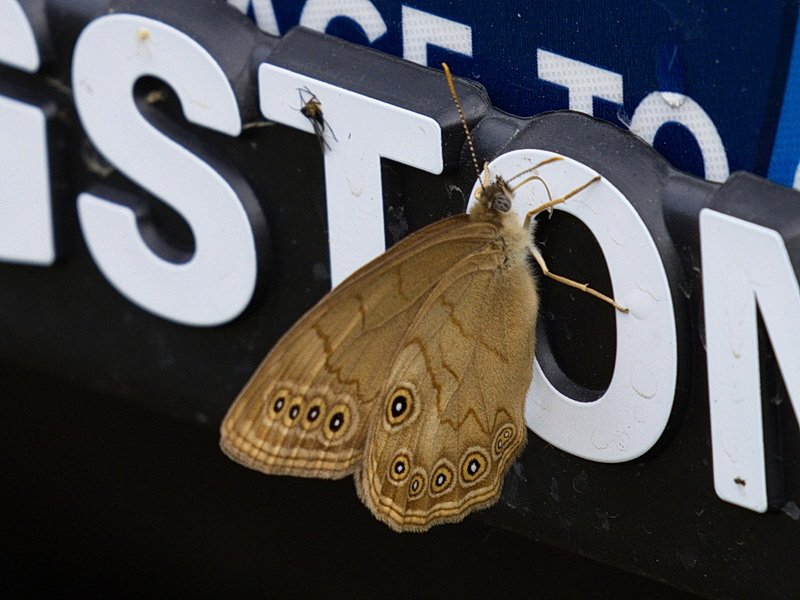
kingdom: Animalia
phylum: Arthropoda
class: Insecta
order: Lepidoptera
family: Nymphalidae
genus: Lethe
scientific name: Lethe eurydice
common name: Eyed Brown
